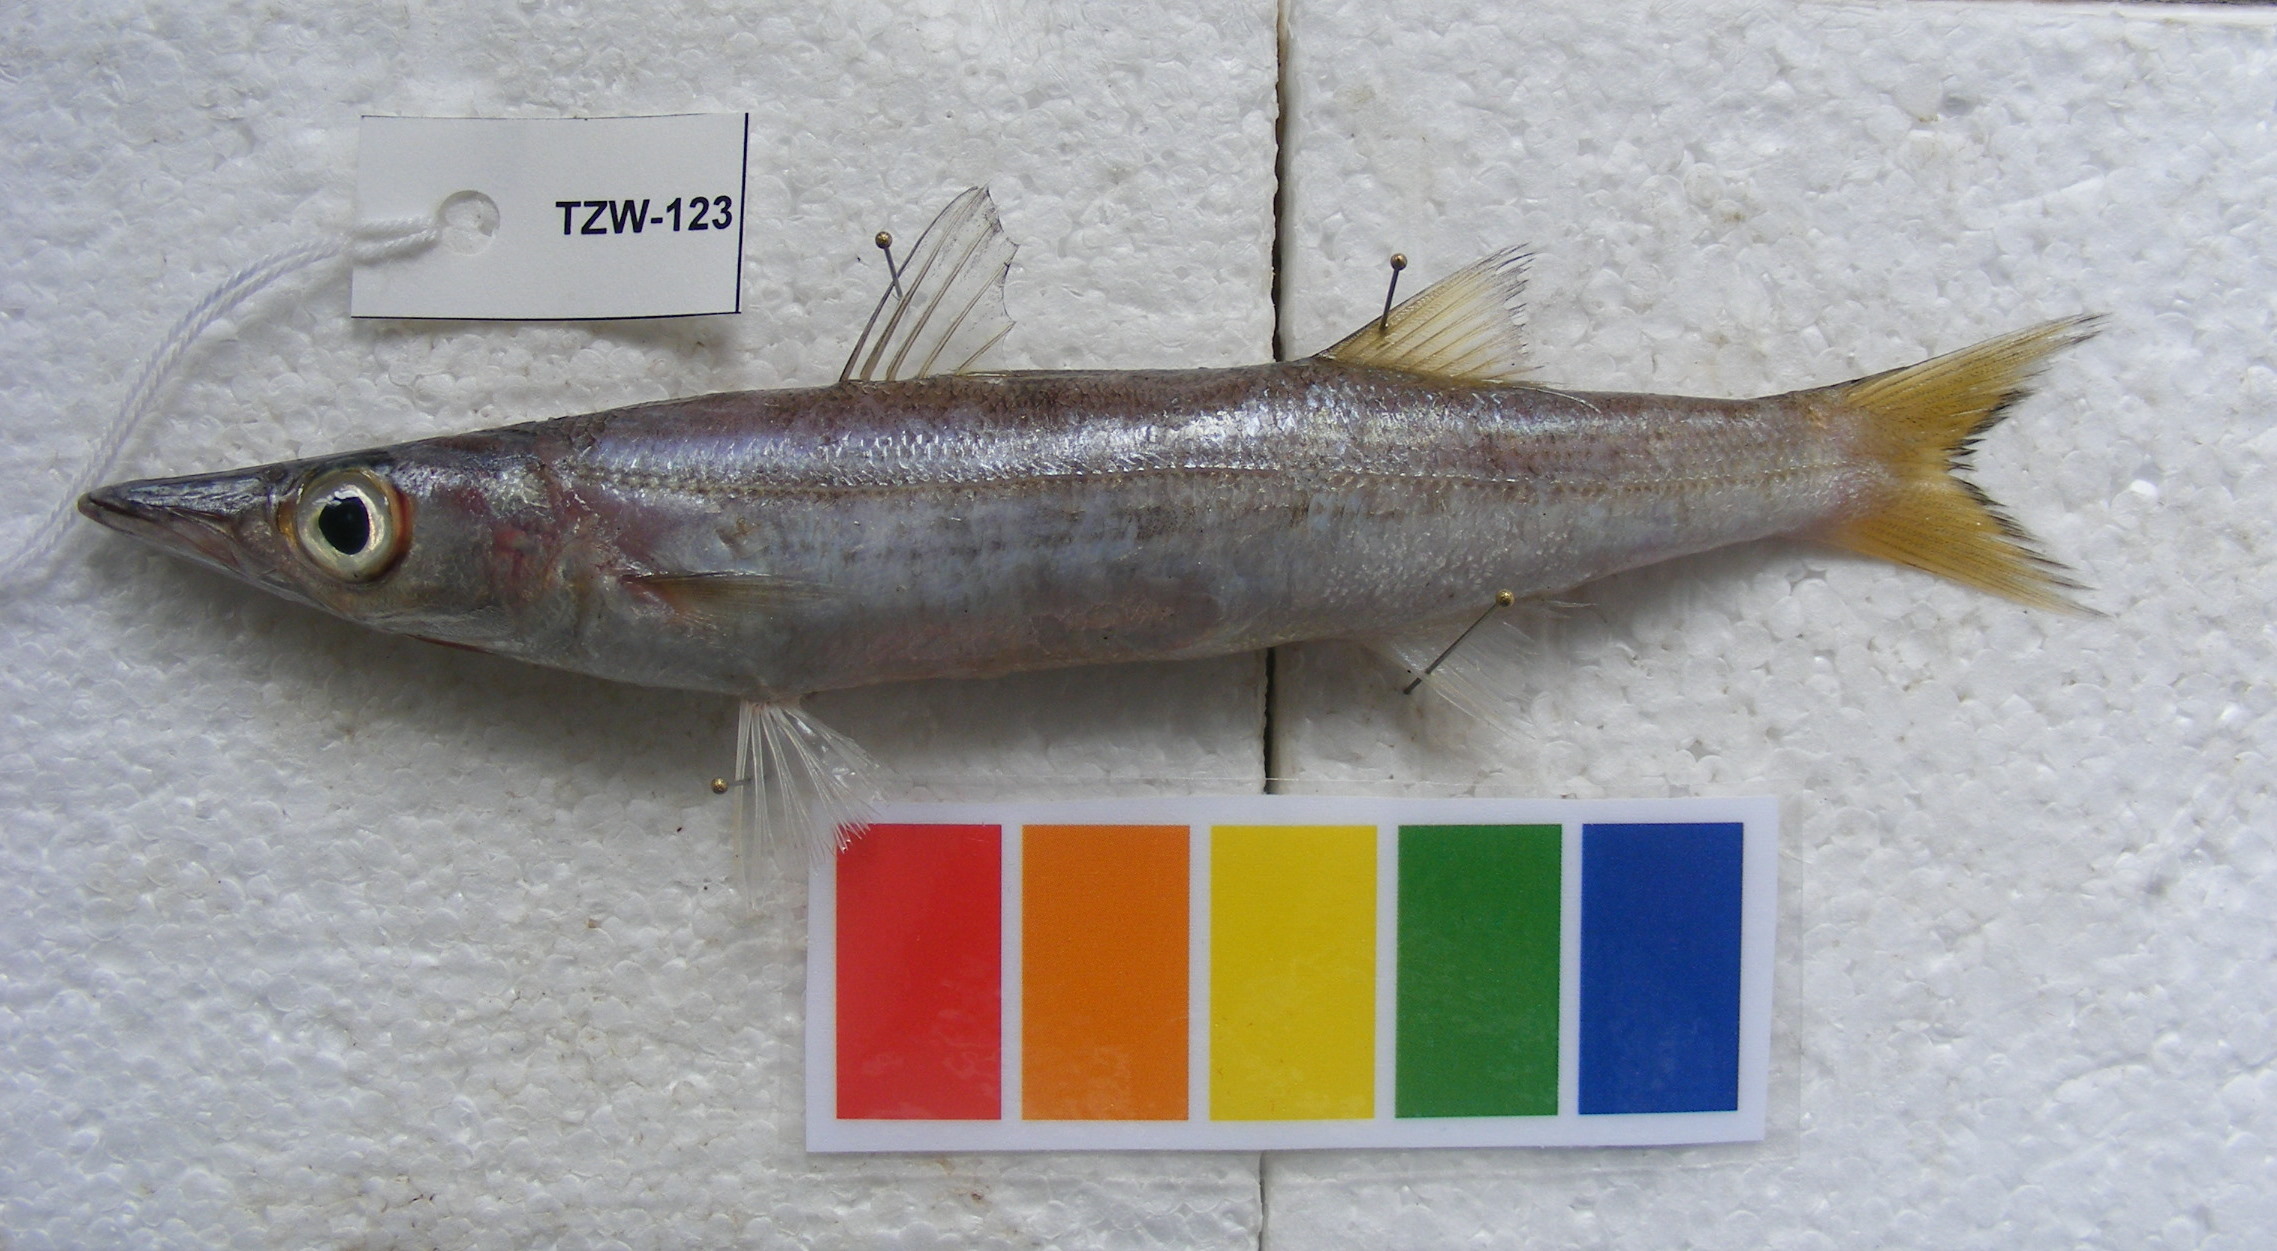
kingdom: Animalia
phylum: Chordata
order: Perciformes
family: Sphyraenidae
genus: Sphyraena
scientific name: Sphyraena chrysotaenia
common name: Yellowstripe barracuda
